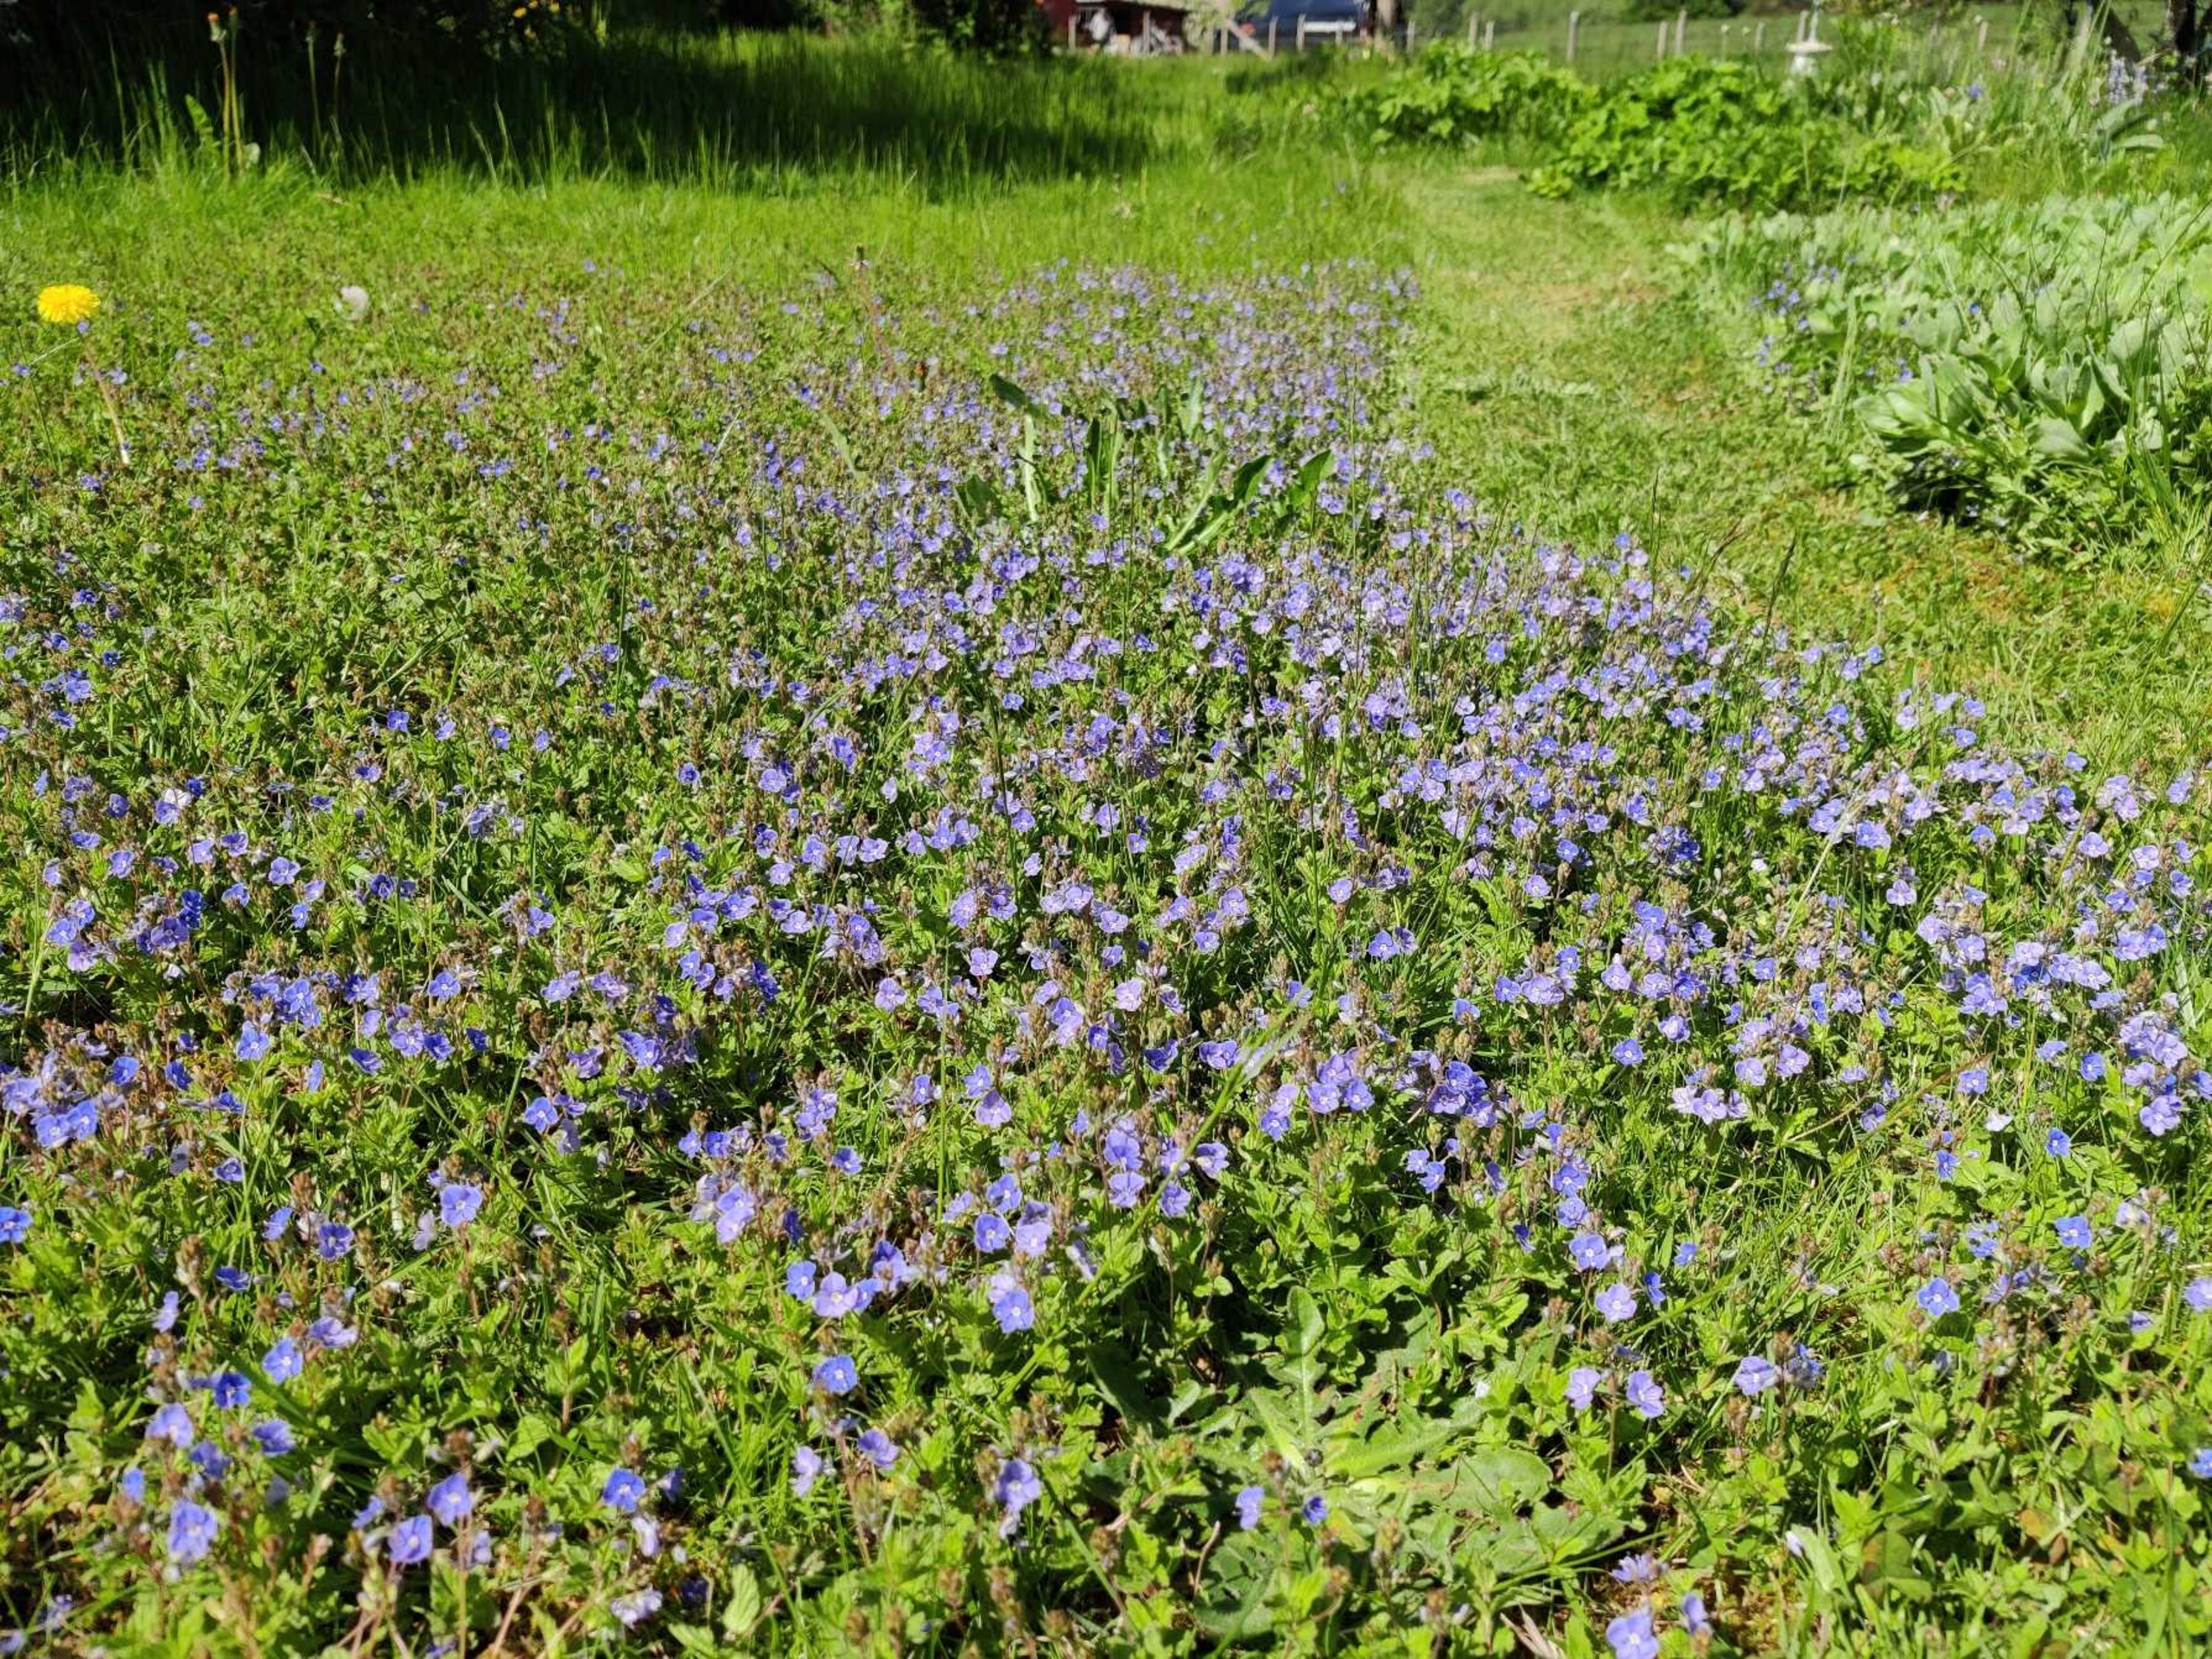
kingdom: Plantae
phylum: Tracheophyta
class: Magnoliopsida
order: Lamiales
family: Plantaginaceae
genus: Veronica
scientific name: Veronica chamaedrys
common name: Tveskægget ærenpris
